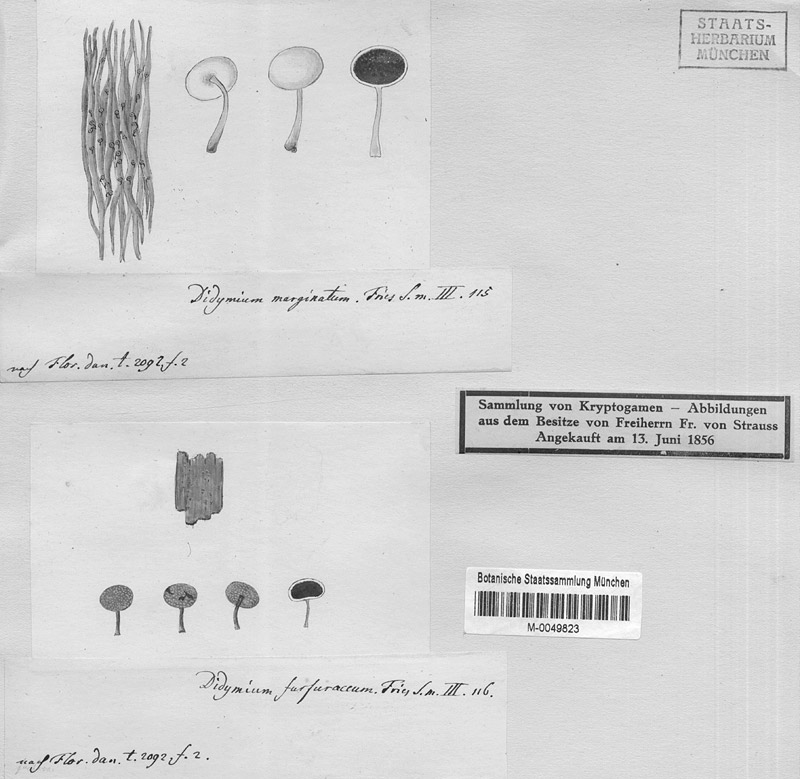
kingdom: Protozoa
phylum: Mycetozoa
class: Myxomycetes
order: Physarales
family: Physaraceae
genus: Physarum
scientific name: Physarum album
